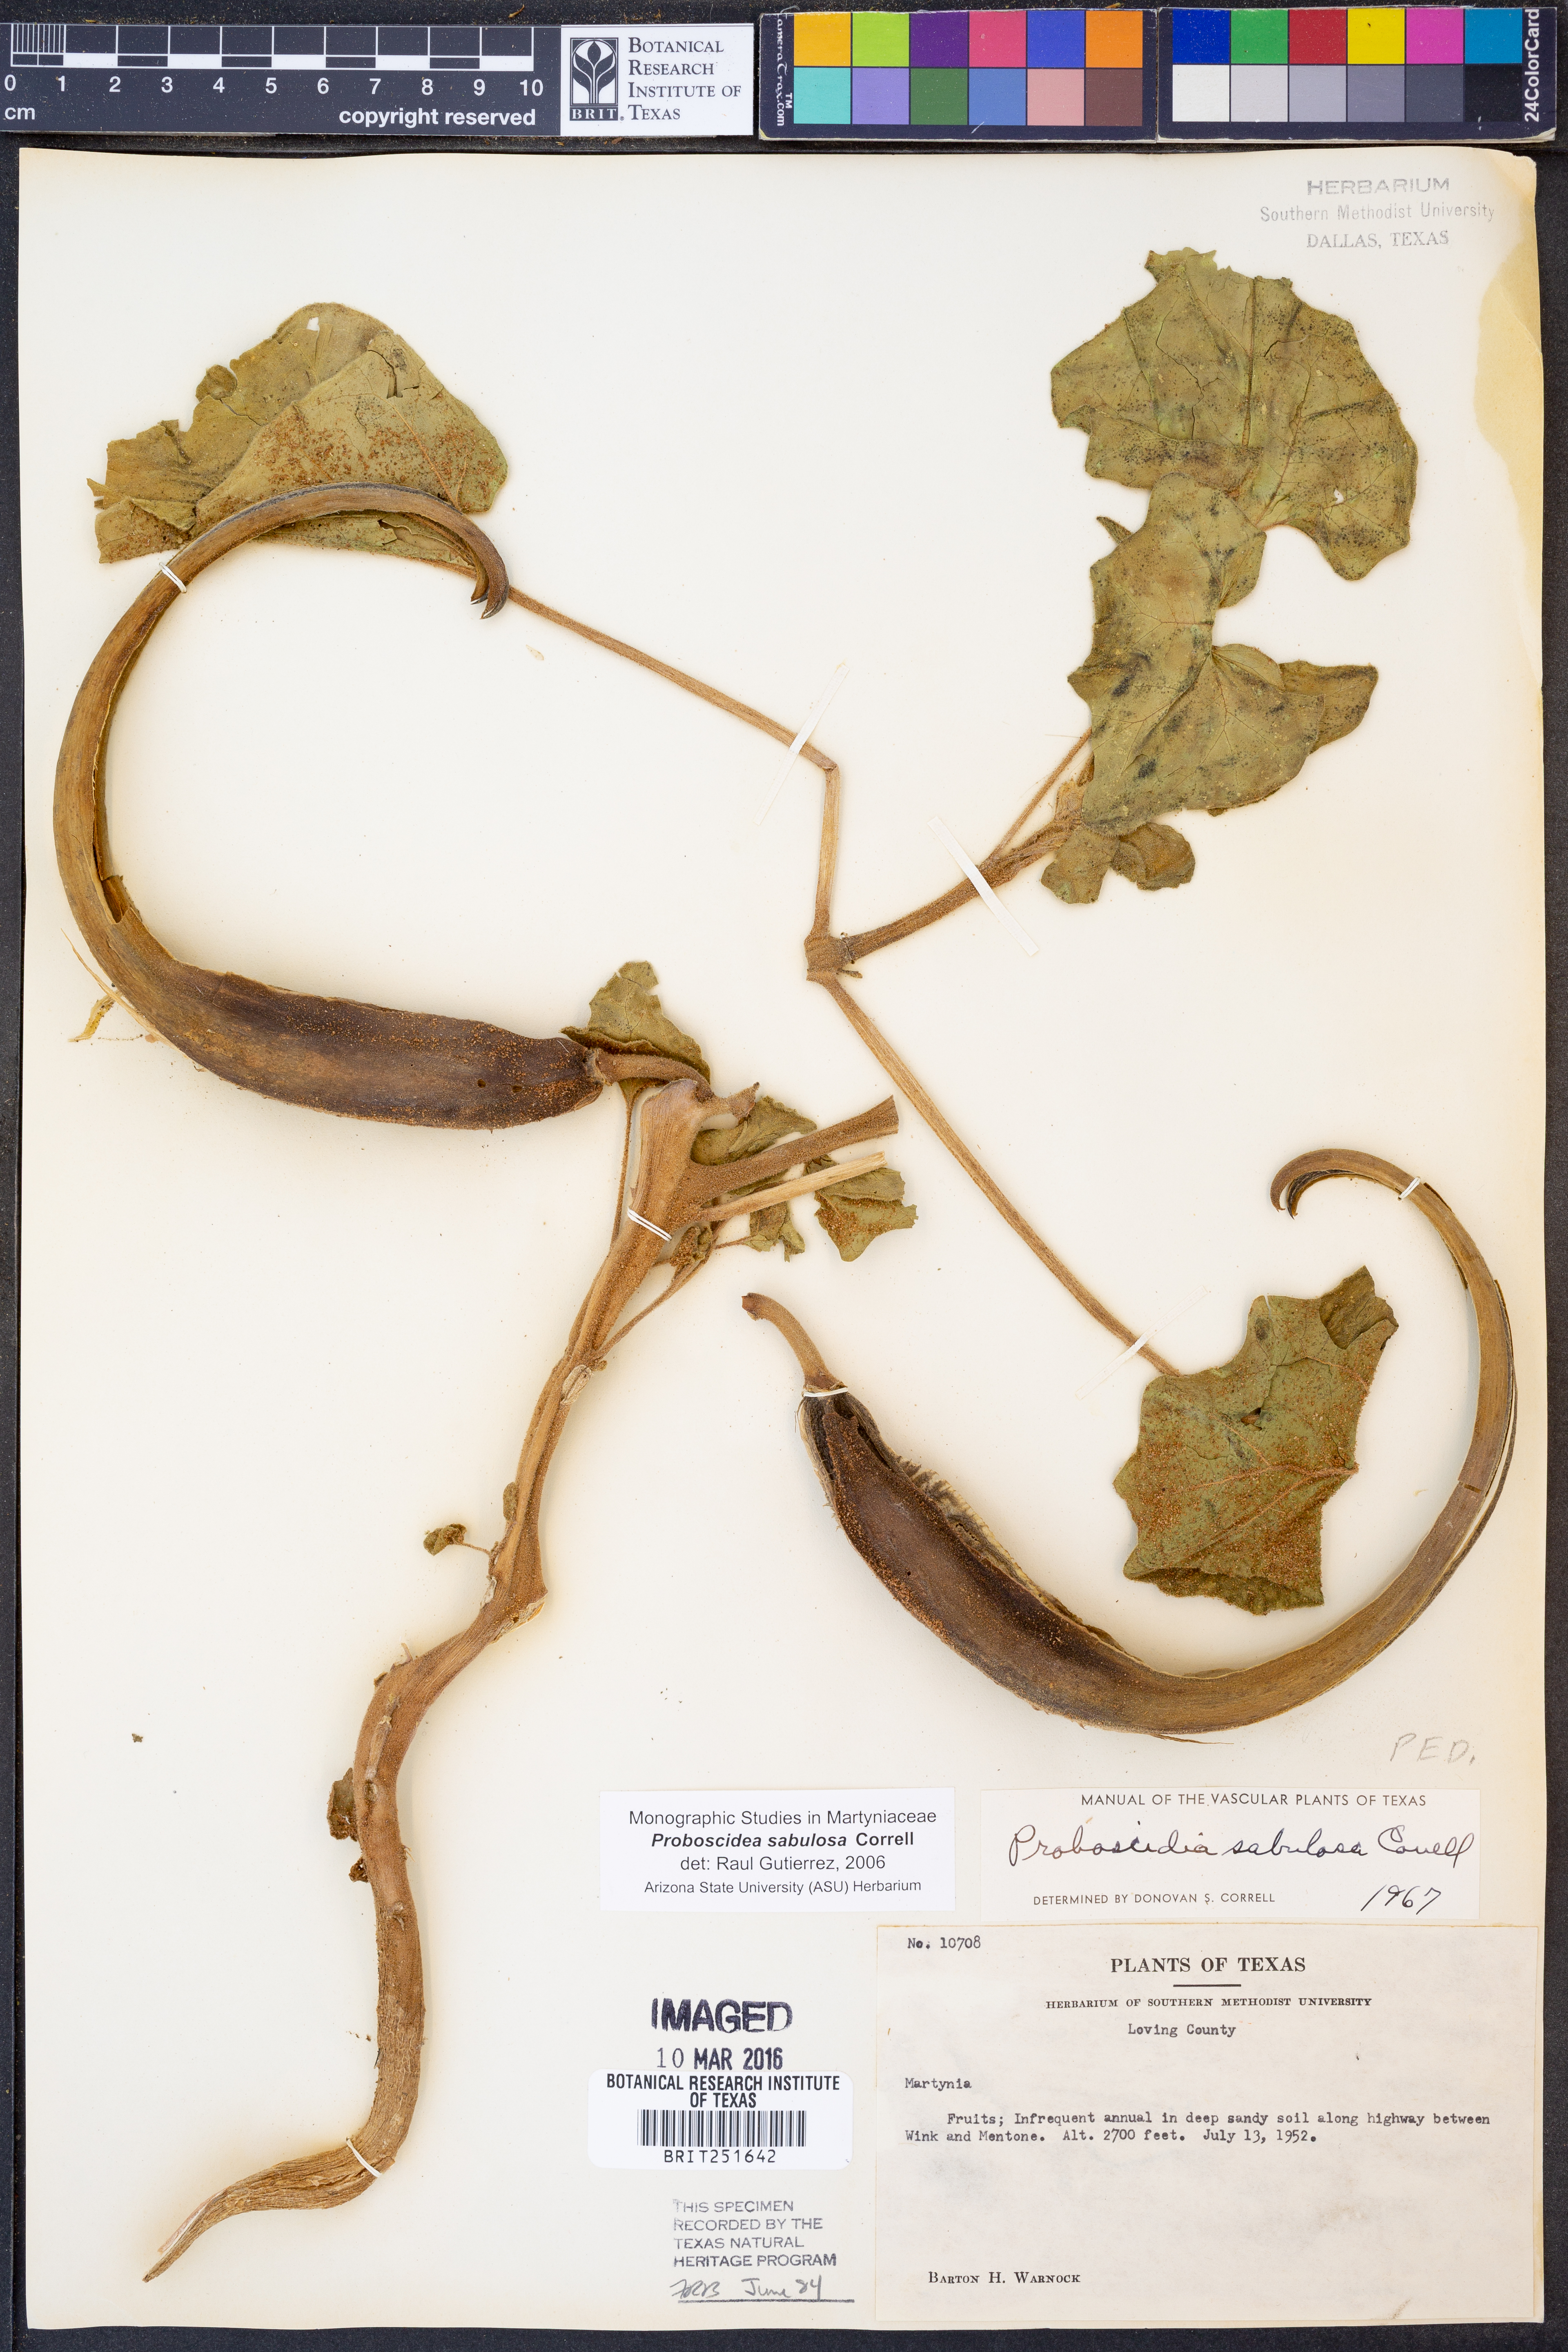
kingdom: Plantae
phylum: Tracheophyta
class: Magnoliopsida
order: Lamiales
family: Martyniaceae
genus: Proboscidea
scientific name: Proboscidea sabulosa
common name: Sand-dune devil's claw
